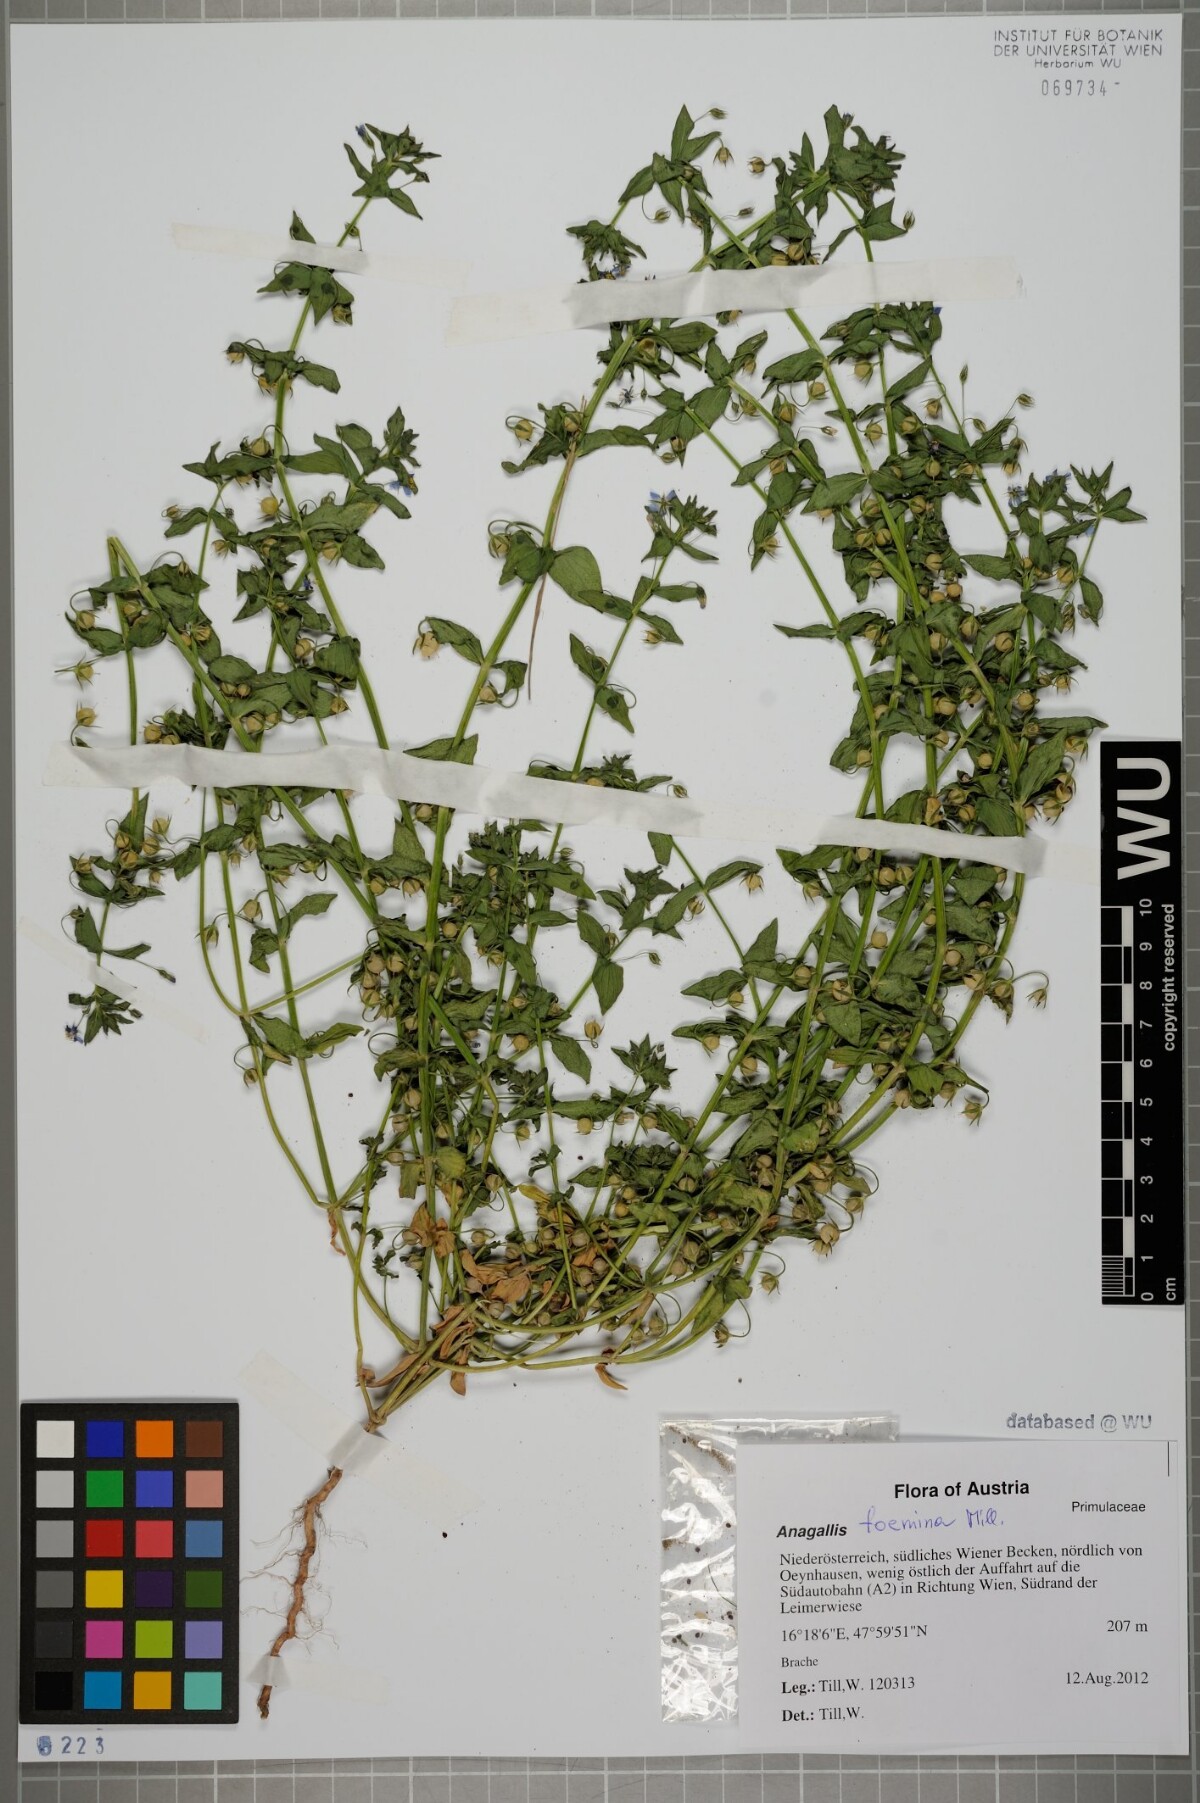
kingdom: Plantae
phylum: Tracheophyta
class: Magnoliopsida
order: Ericales
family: Primulaceae
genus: Lysimachia
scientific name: Lysimachia foemina
